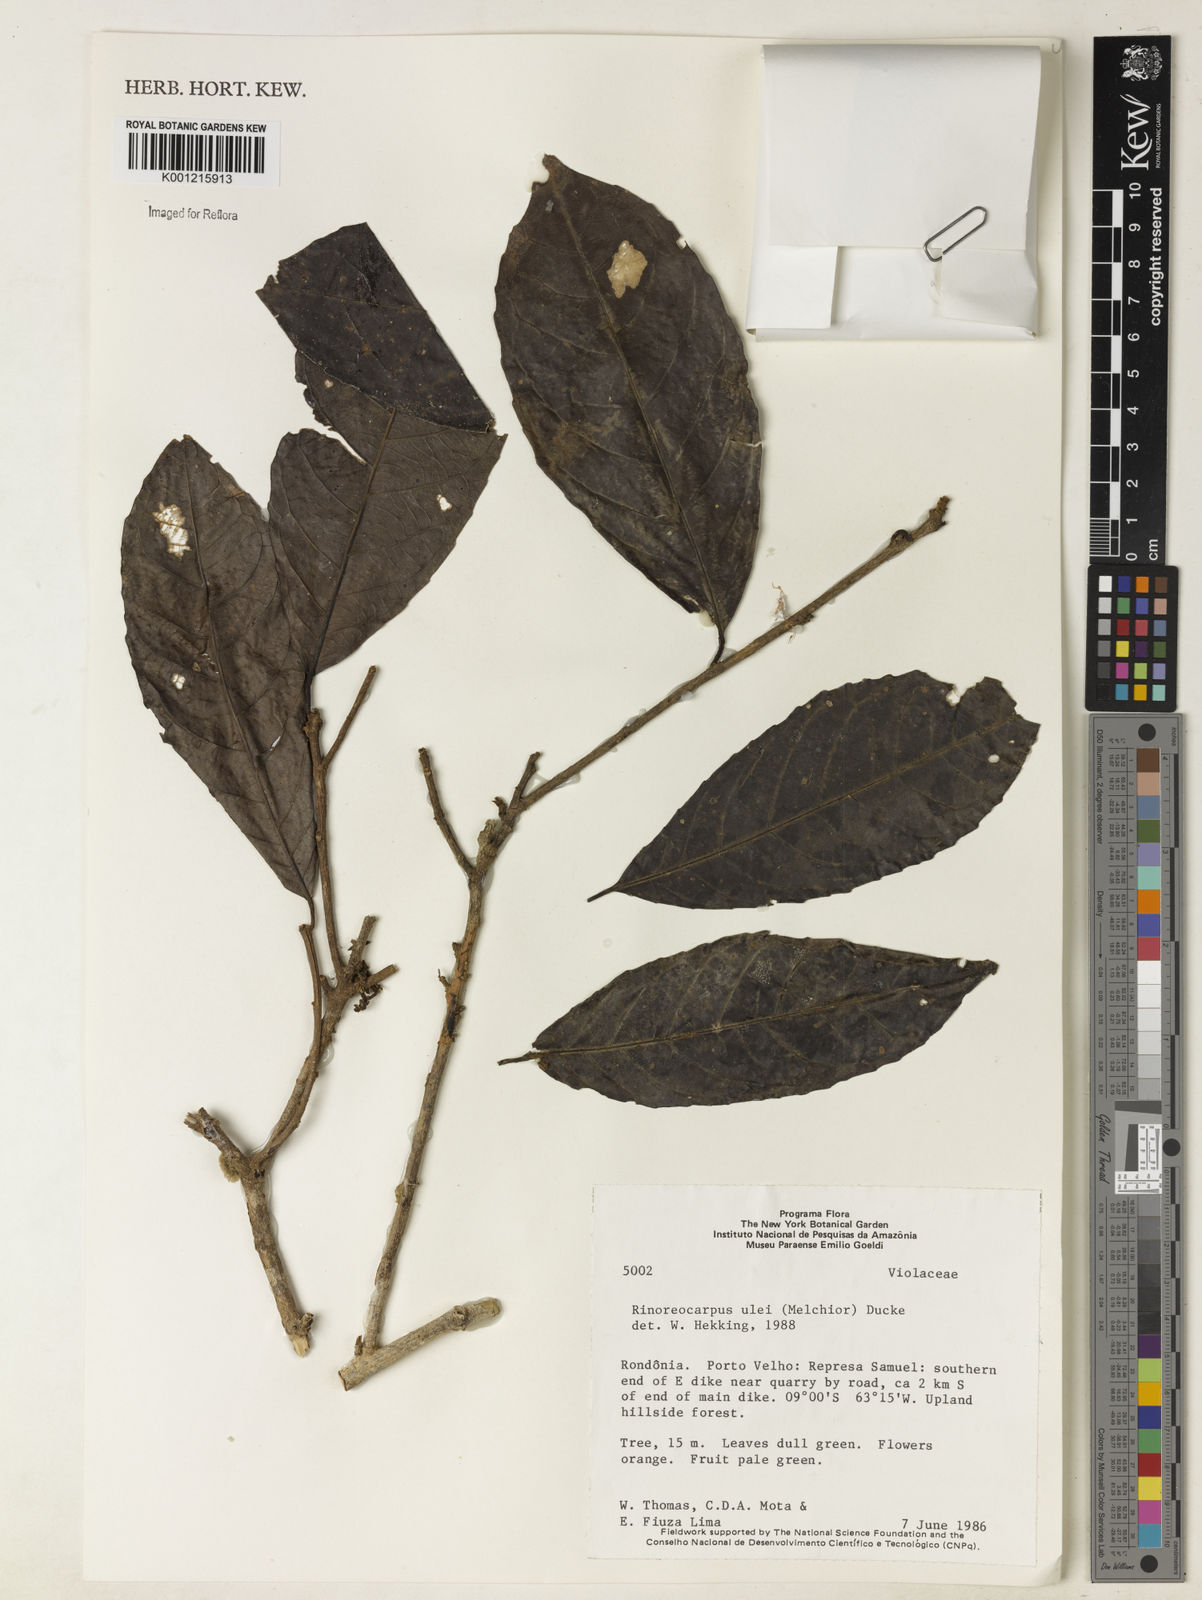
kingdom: Plantae
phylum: Tracheophyta
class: Magnoliopsida
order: Malpighiales
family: Violaceae
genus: Rinorea
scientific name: Rinorea
